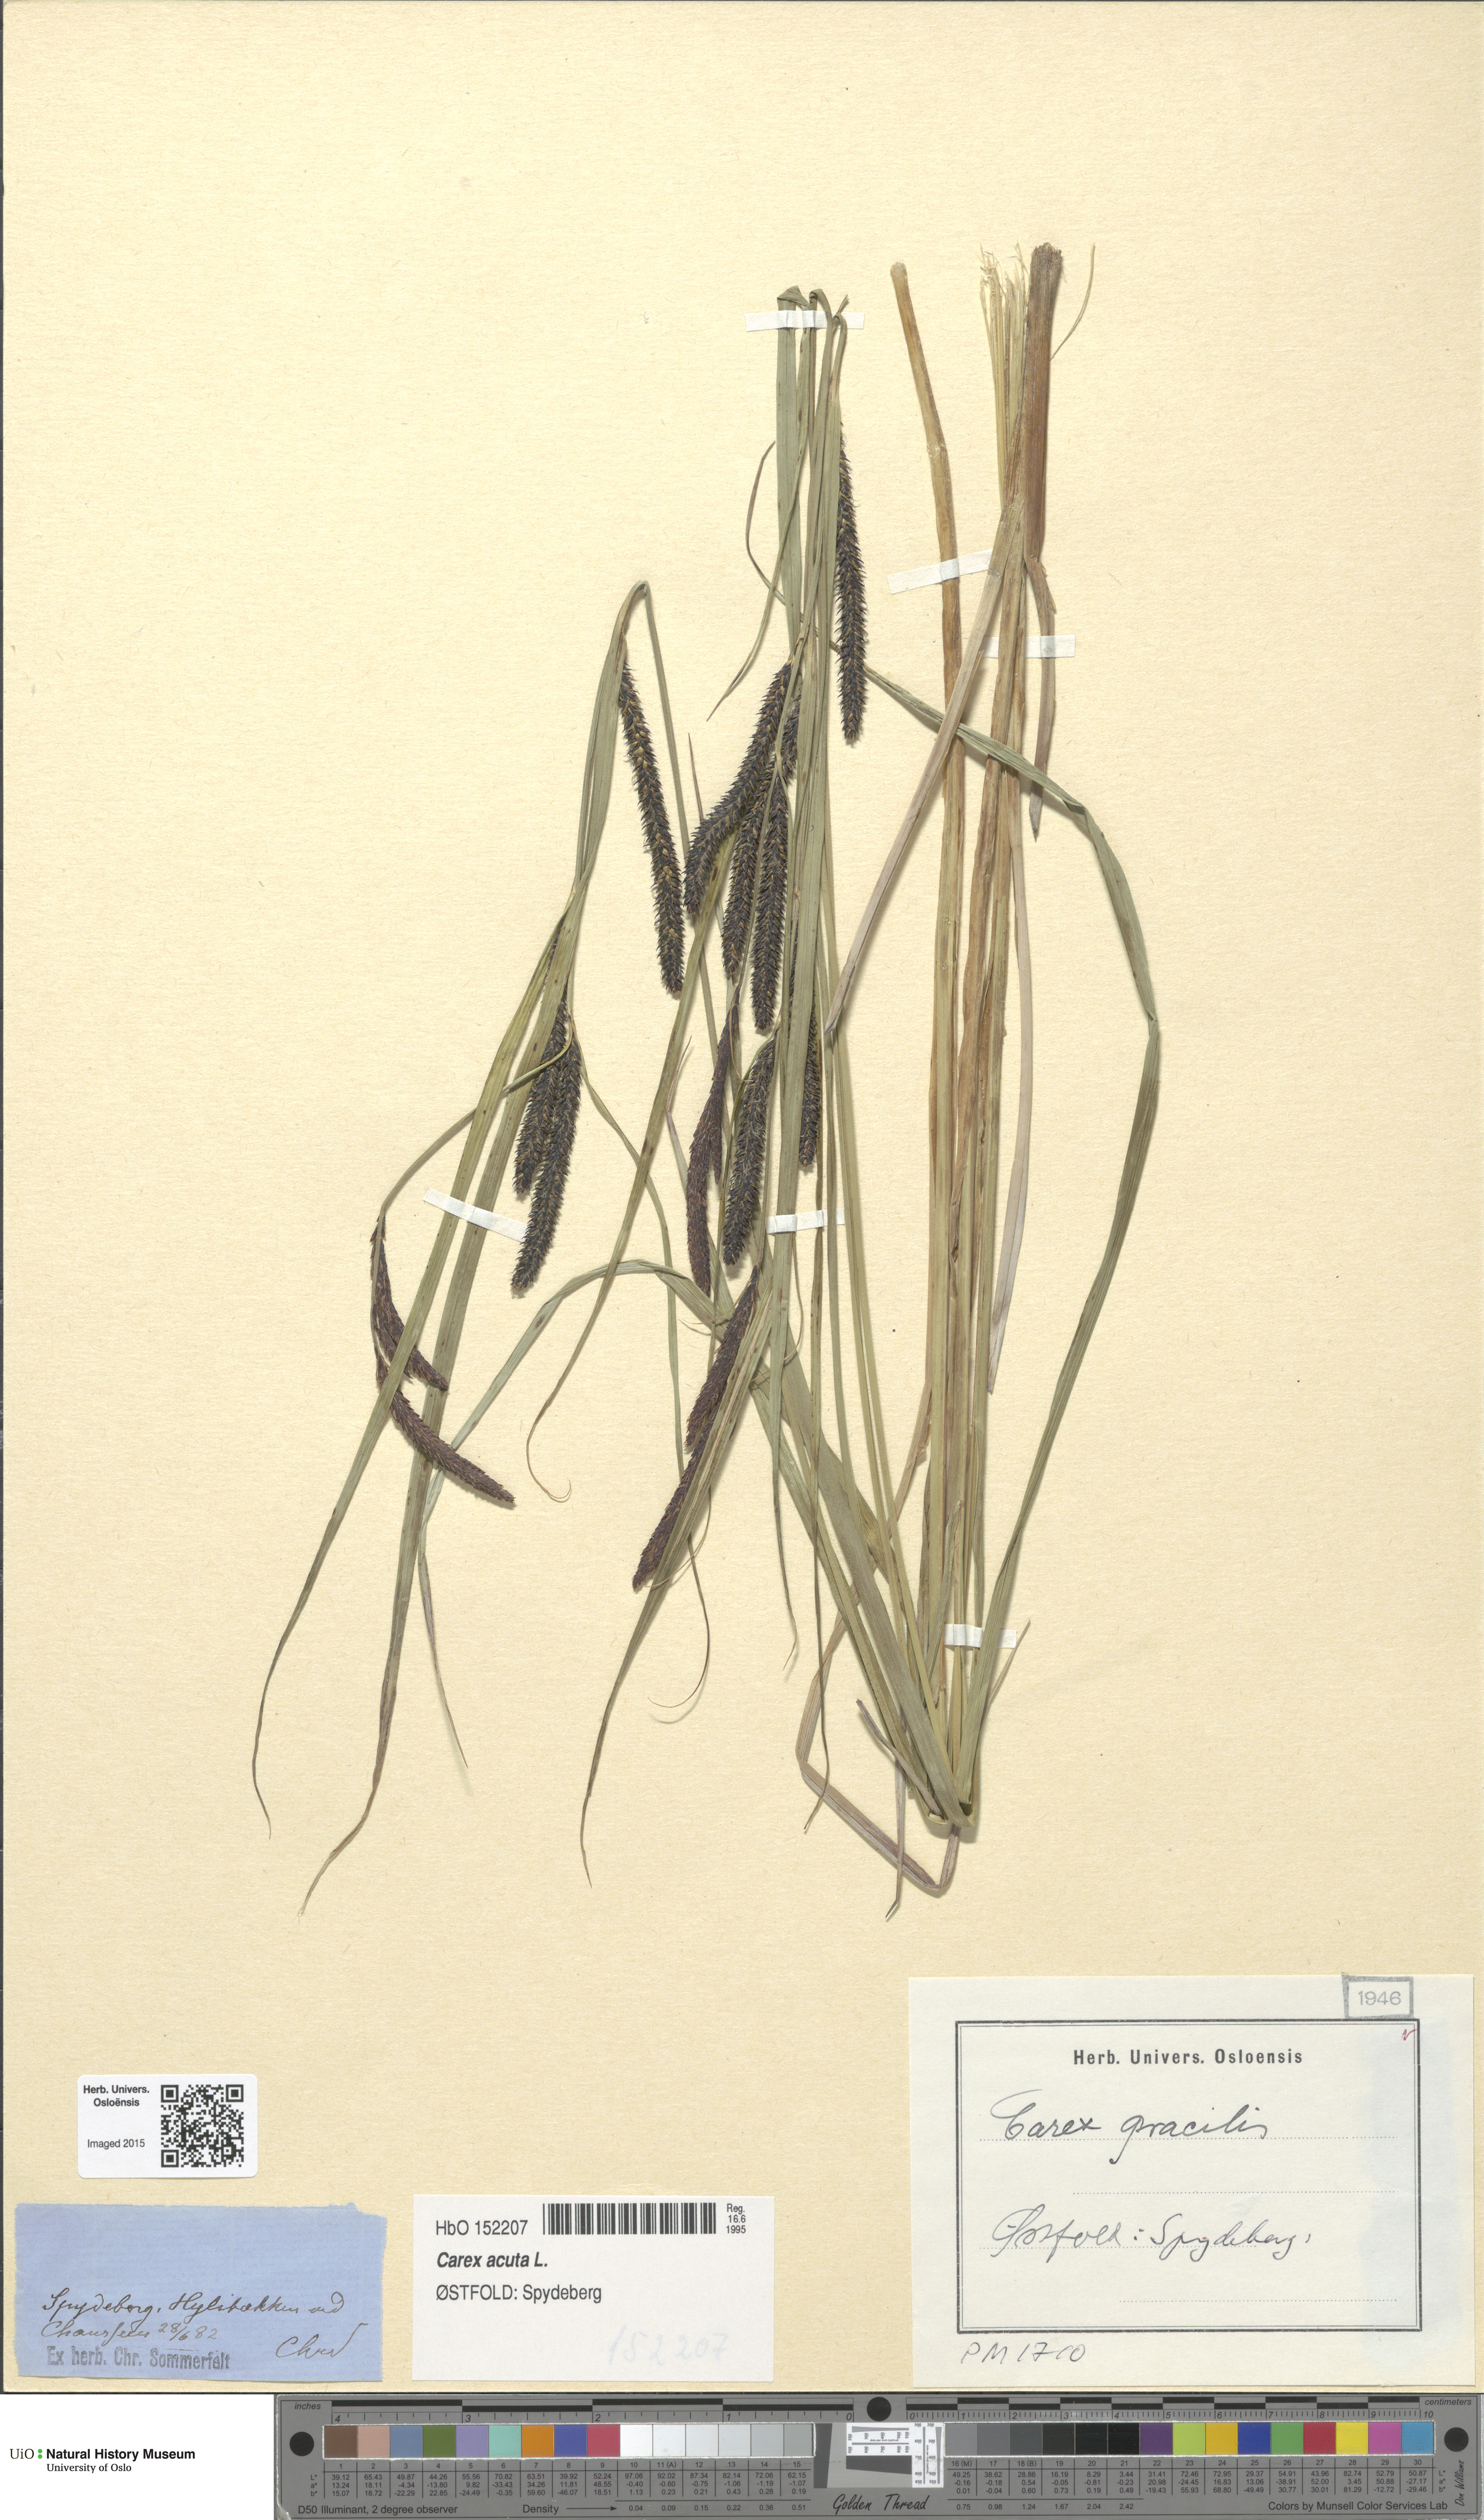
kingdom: Plantae
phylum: Tracheophyta
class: Liliopsida
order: Poales
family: Cyperaceae
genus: Carex
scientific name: Carex acuta
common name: Slender tufted-sedge
